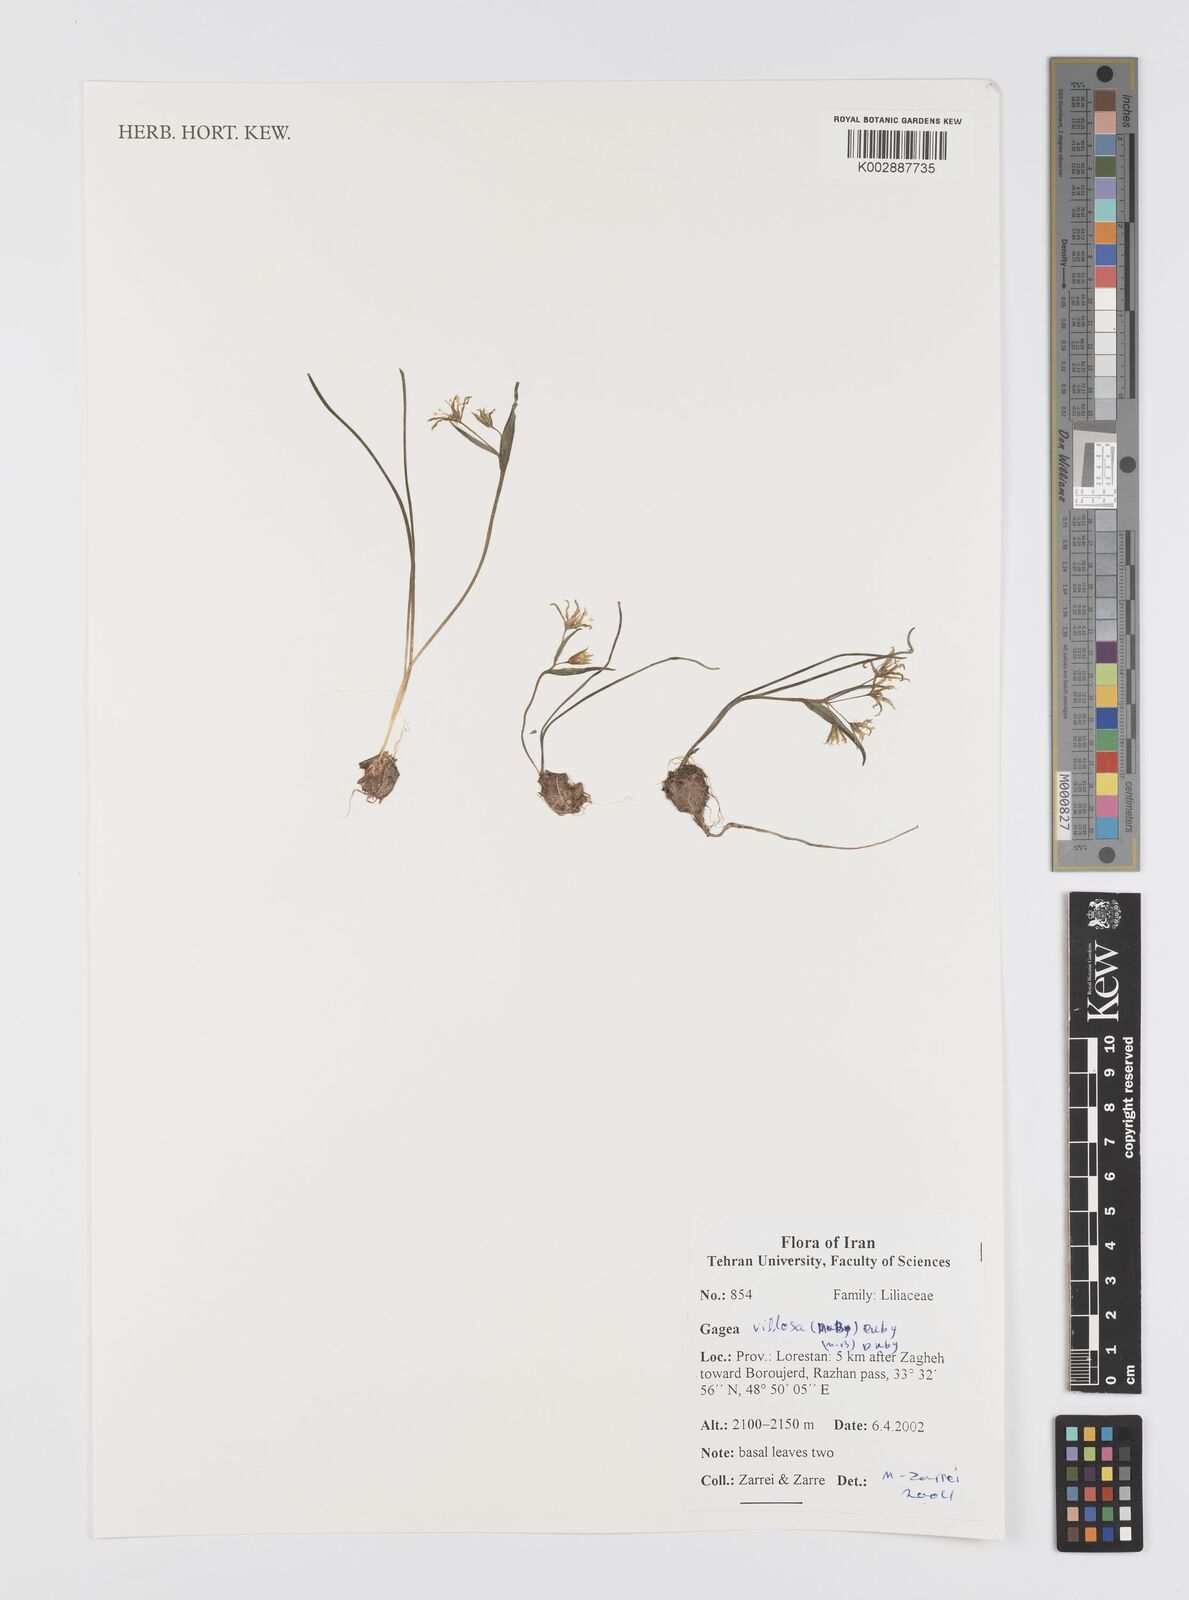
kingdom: Plantae
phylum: Tracheophyta
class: Liliopsida
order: Liliales
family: Liliaceae
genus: Gagea
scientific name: Gagea villosa
